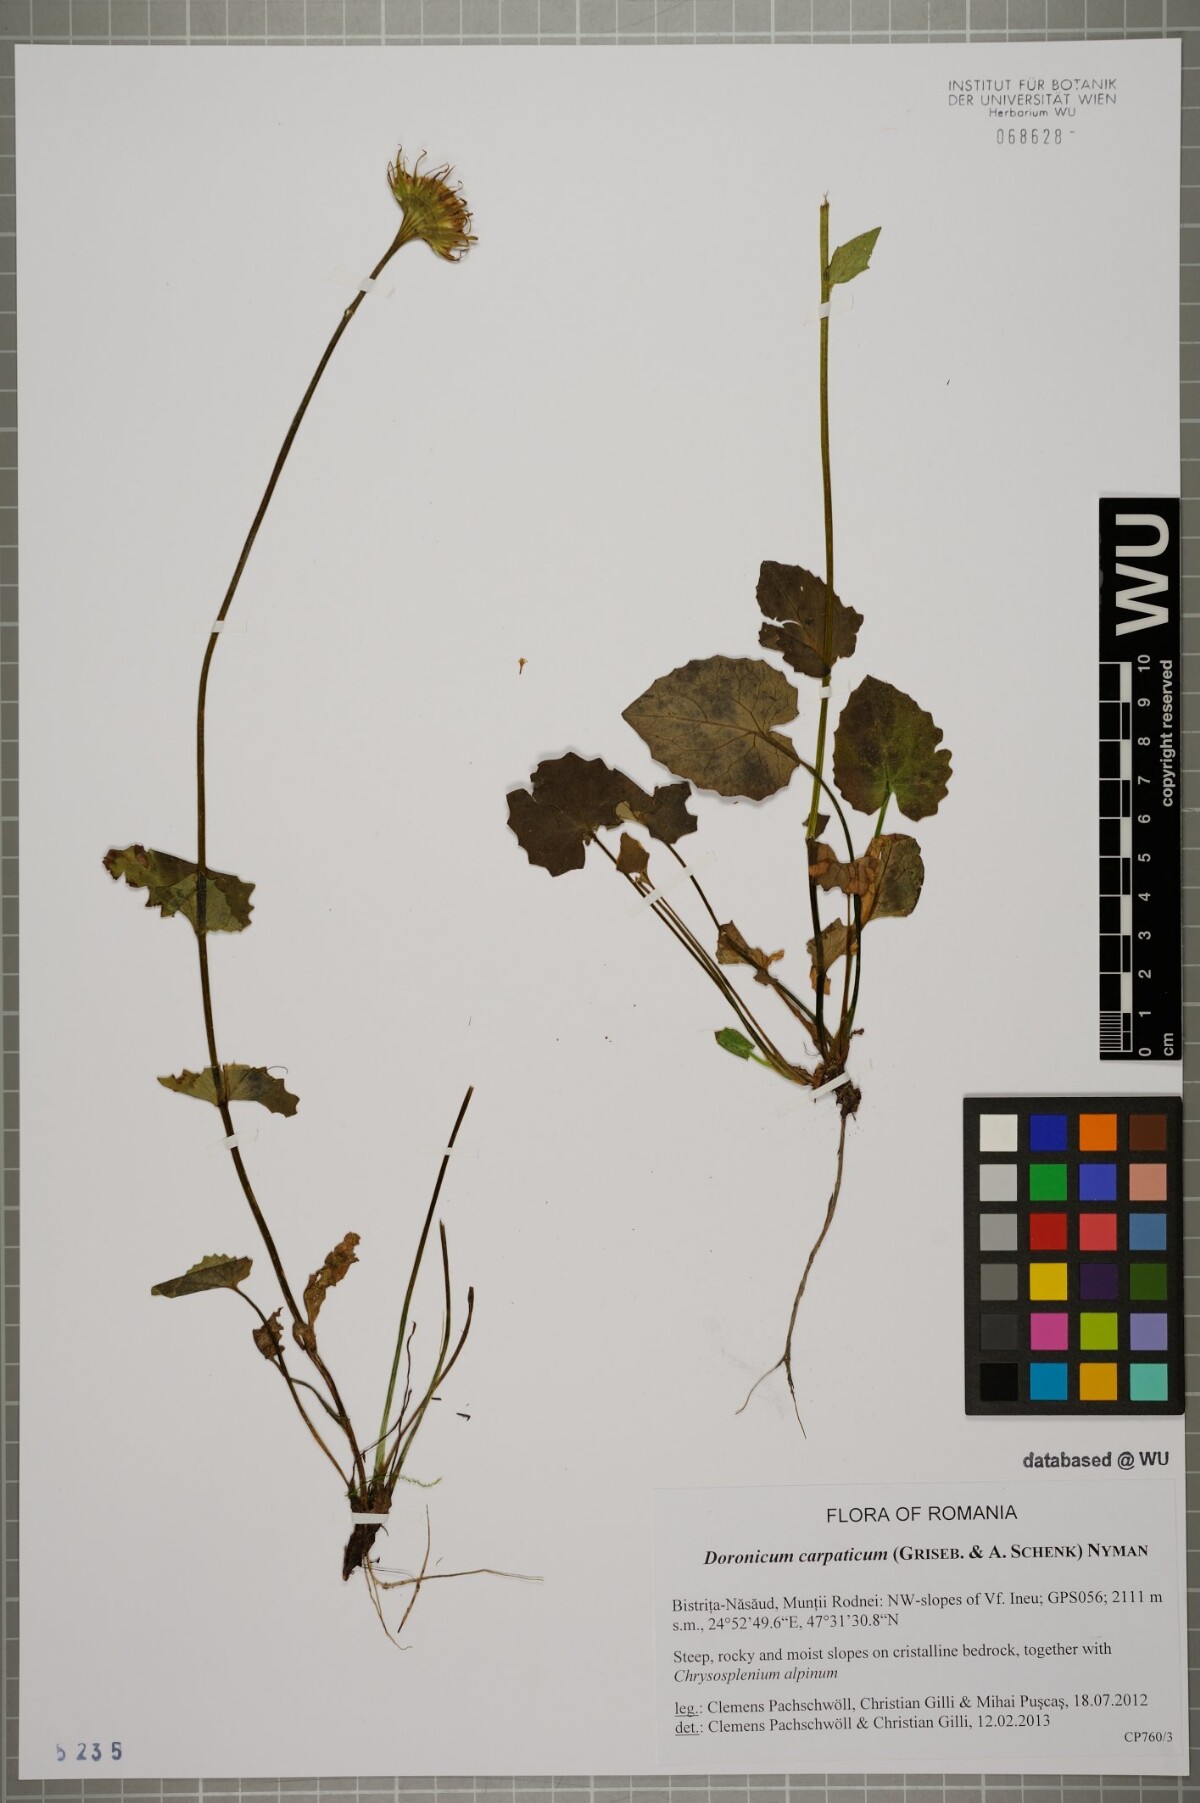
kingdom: Plantae
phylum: Tracheophyta
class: Magnoliopsida
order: Asterales
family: Asteraceae
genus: Doronicum
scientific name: Doronicum carpaticum
